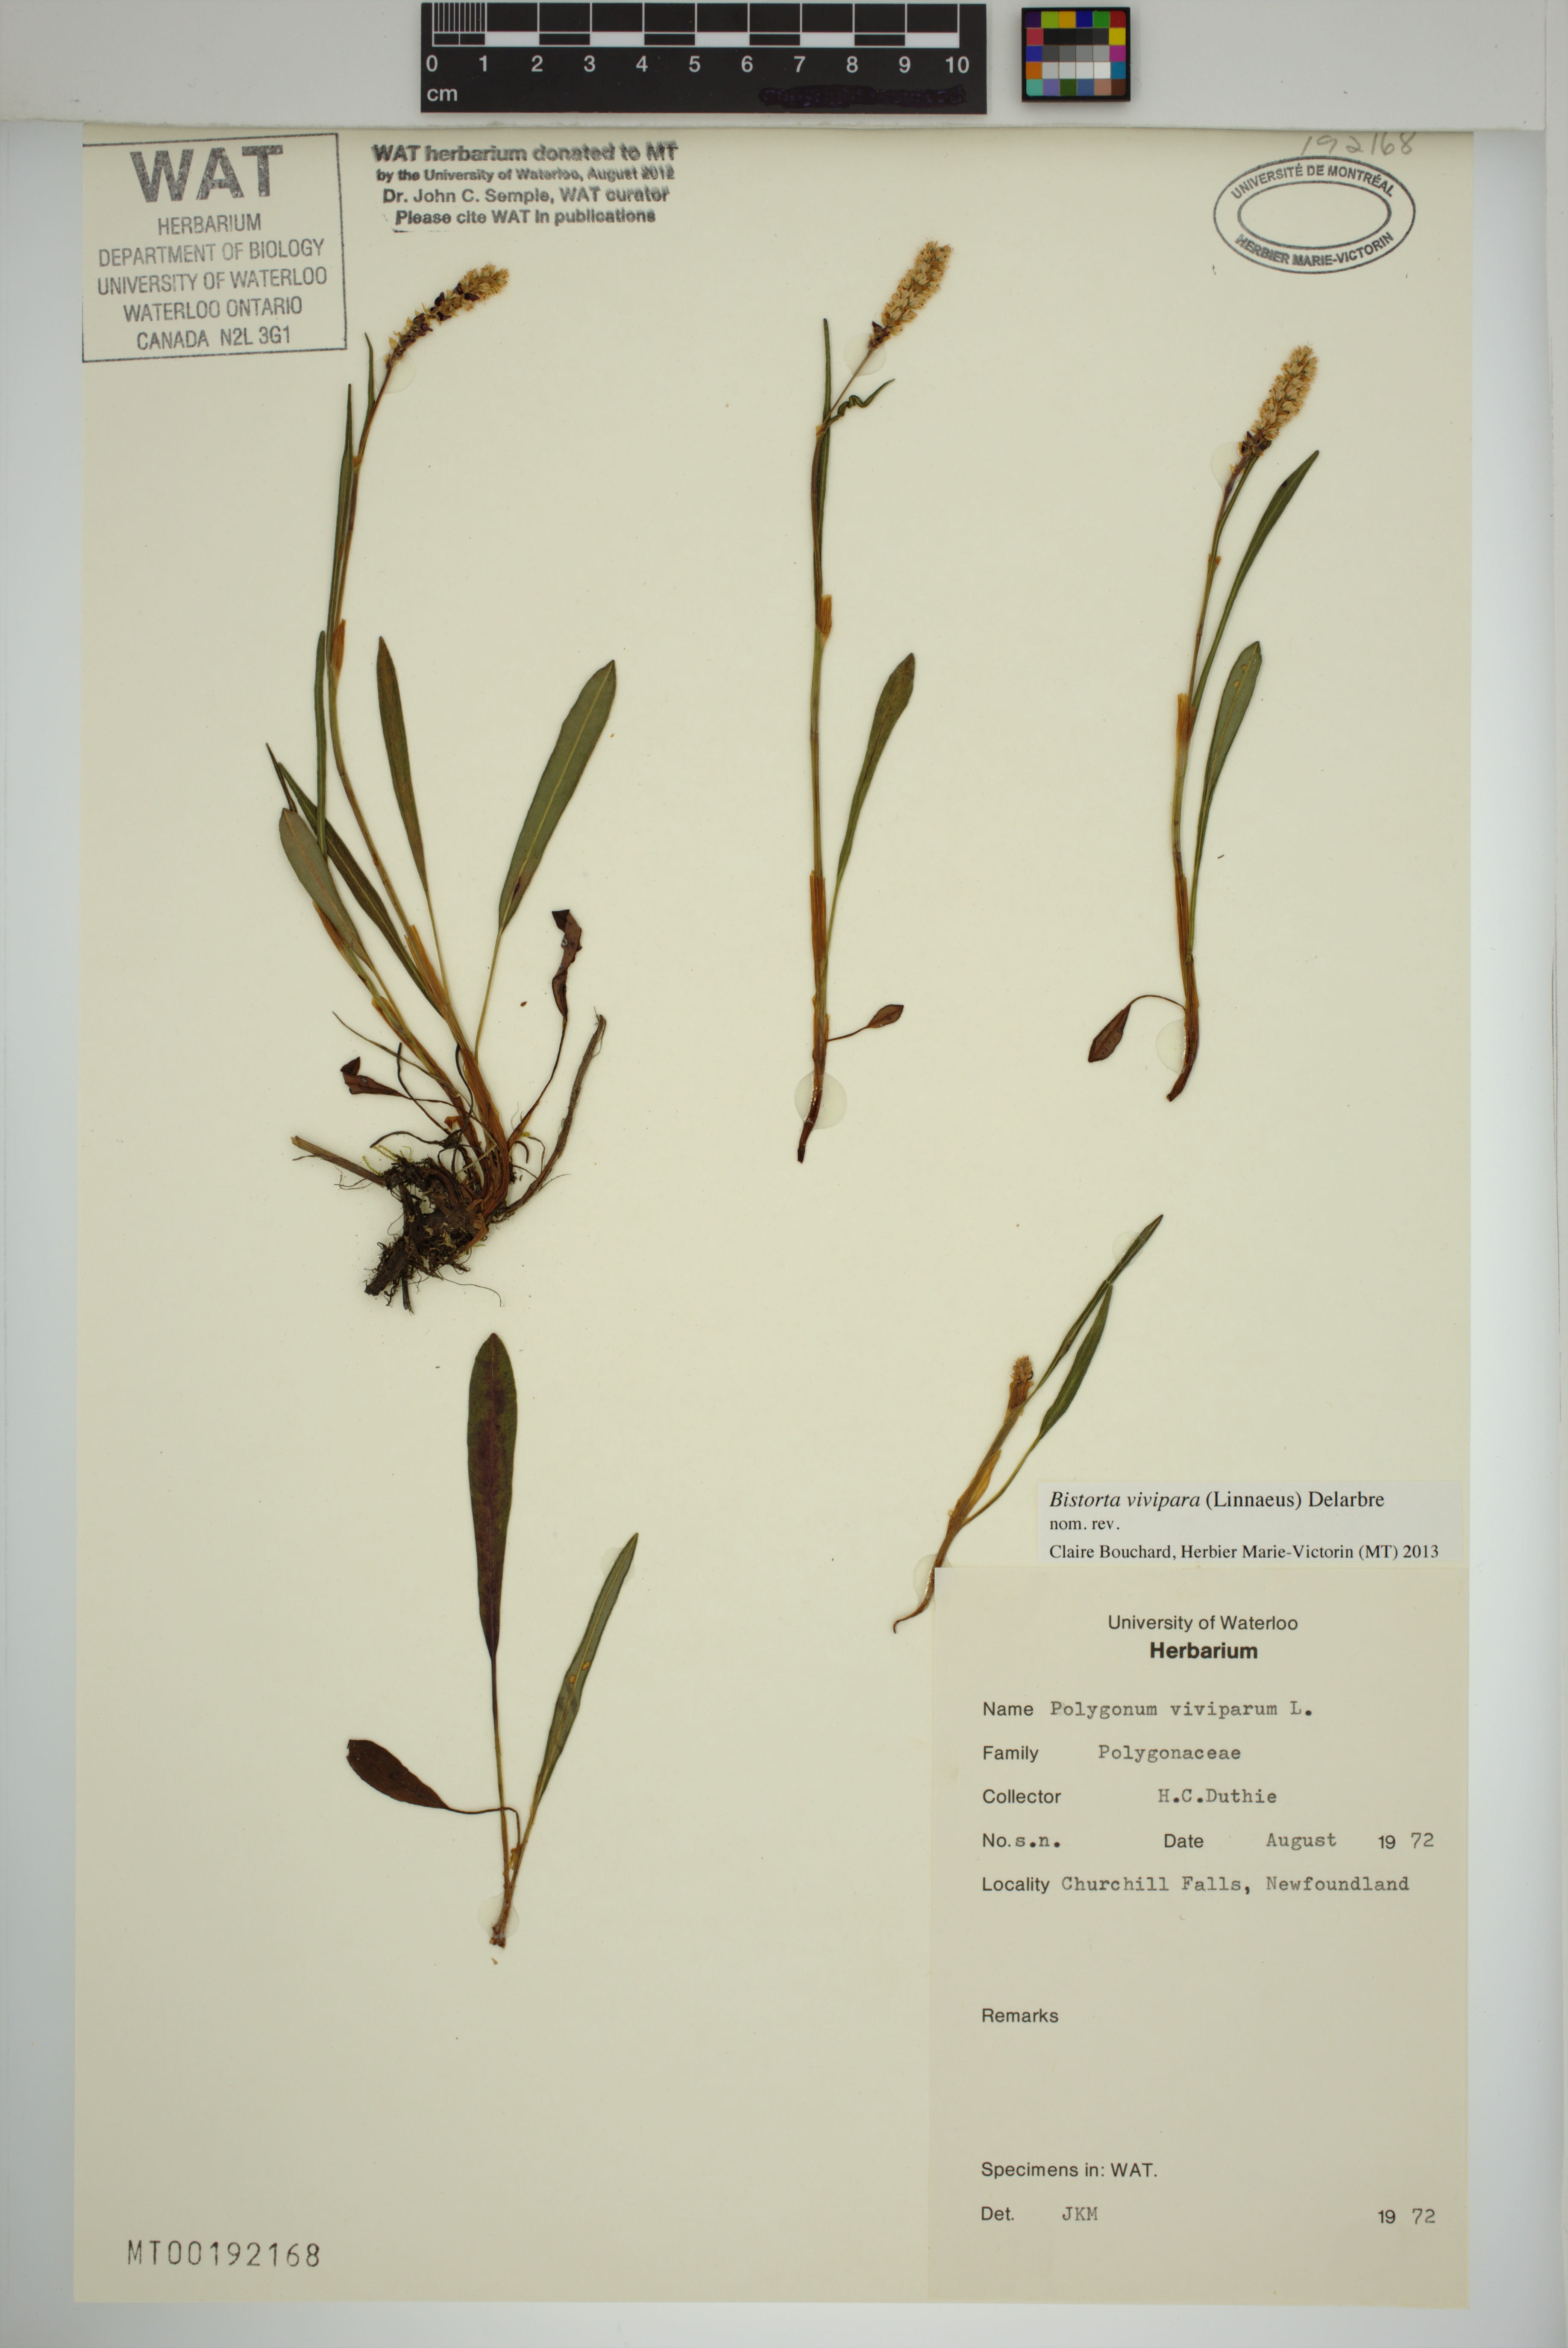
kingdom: Plantae
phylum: Tracheophyta
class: Magnoliopsida
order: Caryophyllales
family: Polygonaceae
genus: Bistorta
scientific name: Bistorta vivipara
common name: Alpine bistort
